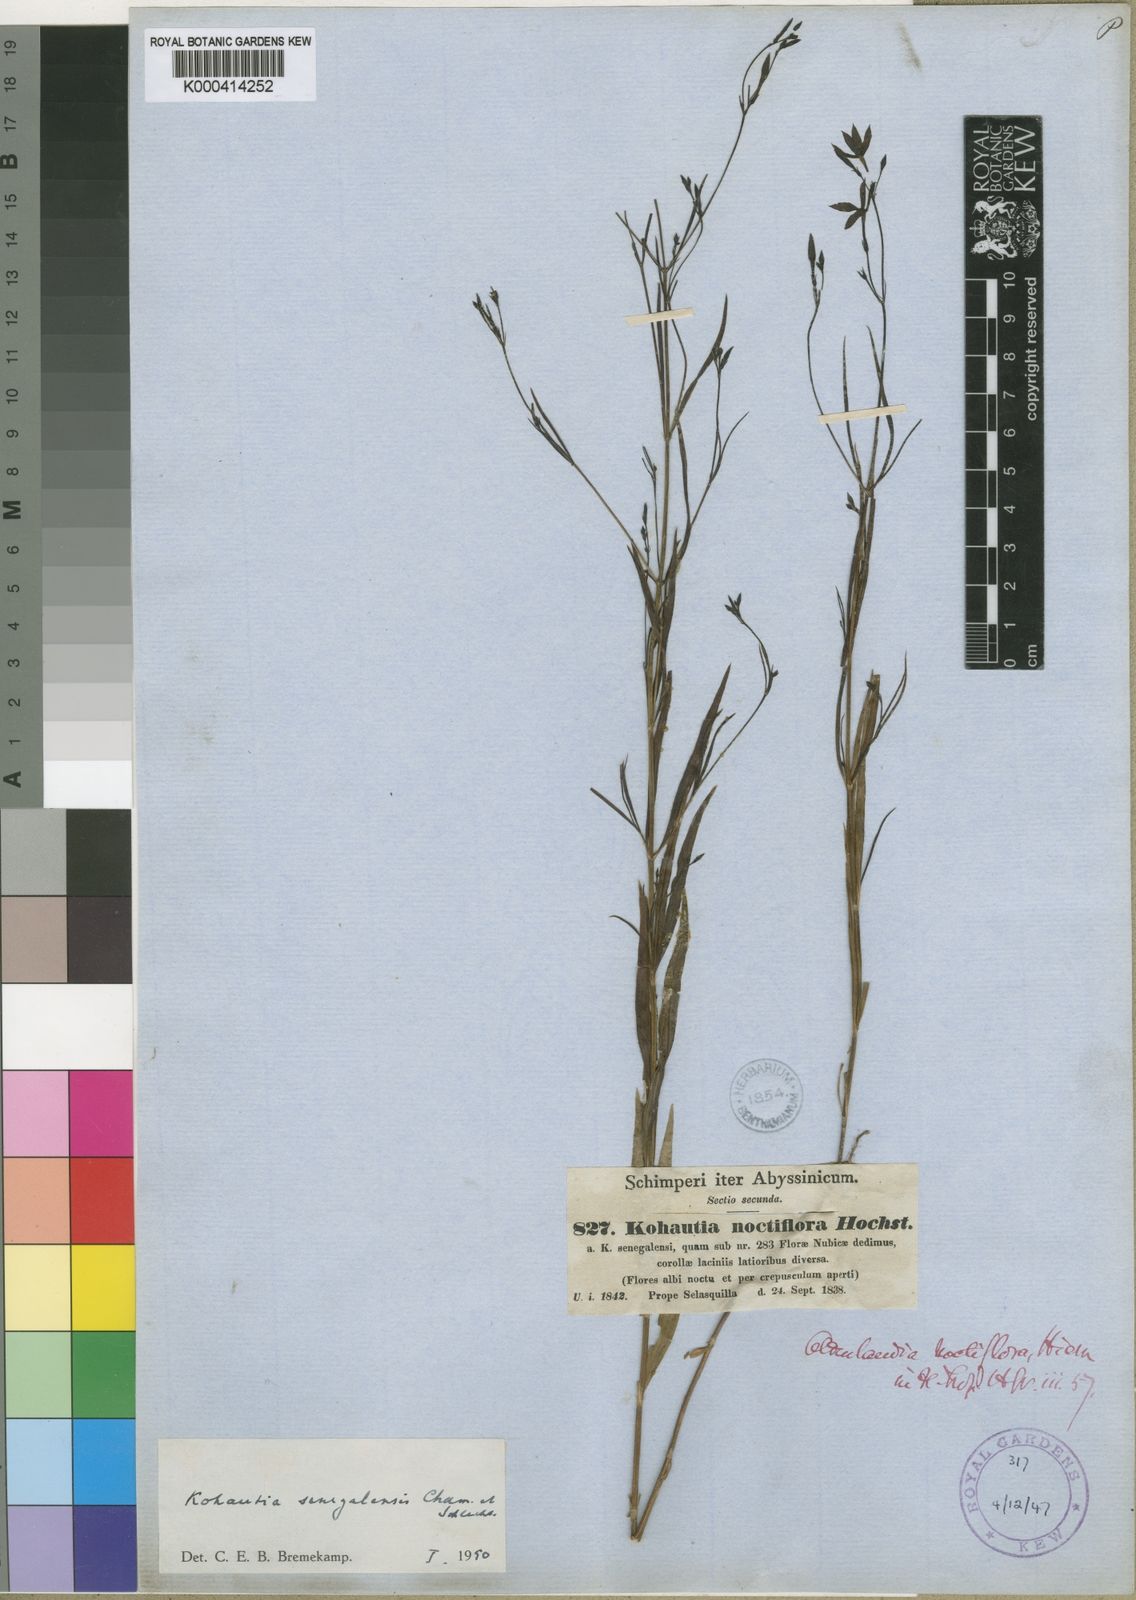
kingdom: Plantae
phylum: Tracheophyta
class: Magnoliopsida
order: Gentianales
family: Rubiaceae
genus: Kohautia
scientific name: Kohautia tenuis
